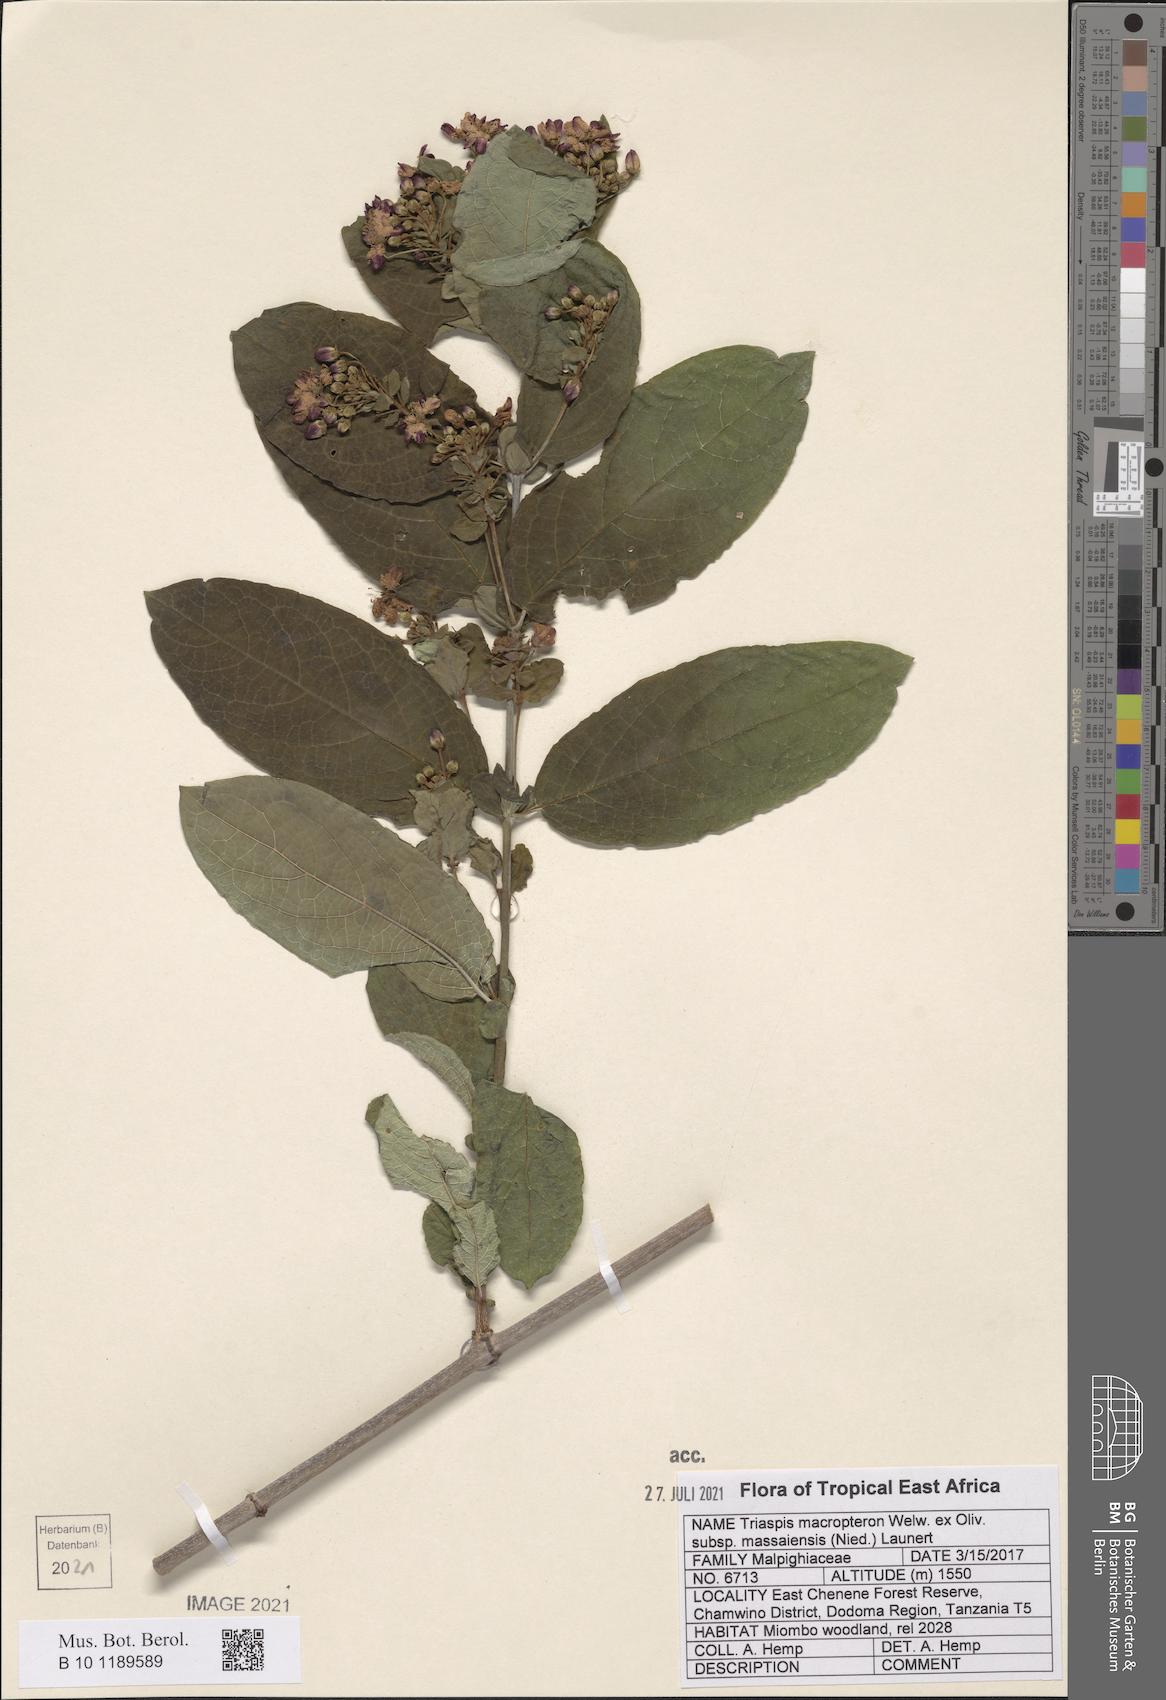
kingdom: Plantae
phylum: Tracheophyta
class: Magnoliopsida
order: Malpighiales
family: Malpighiaceae
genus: Triaspis
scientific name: Triaspis macropteron
